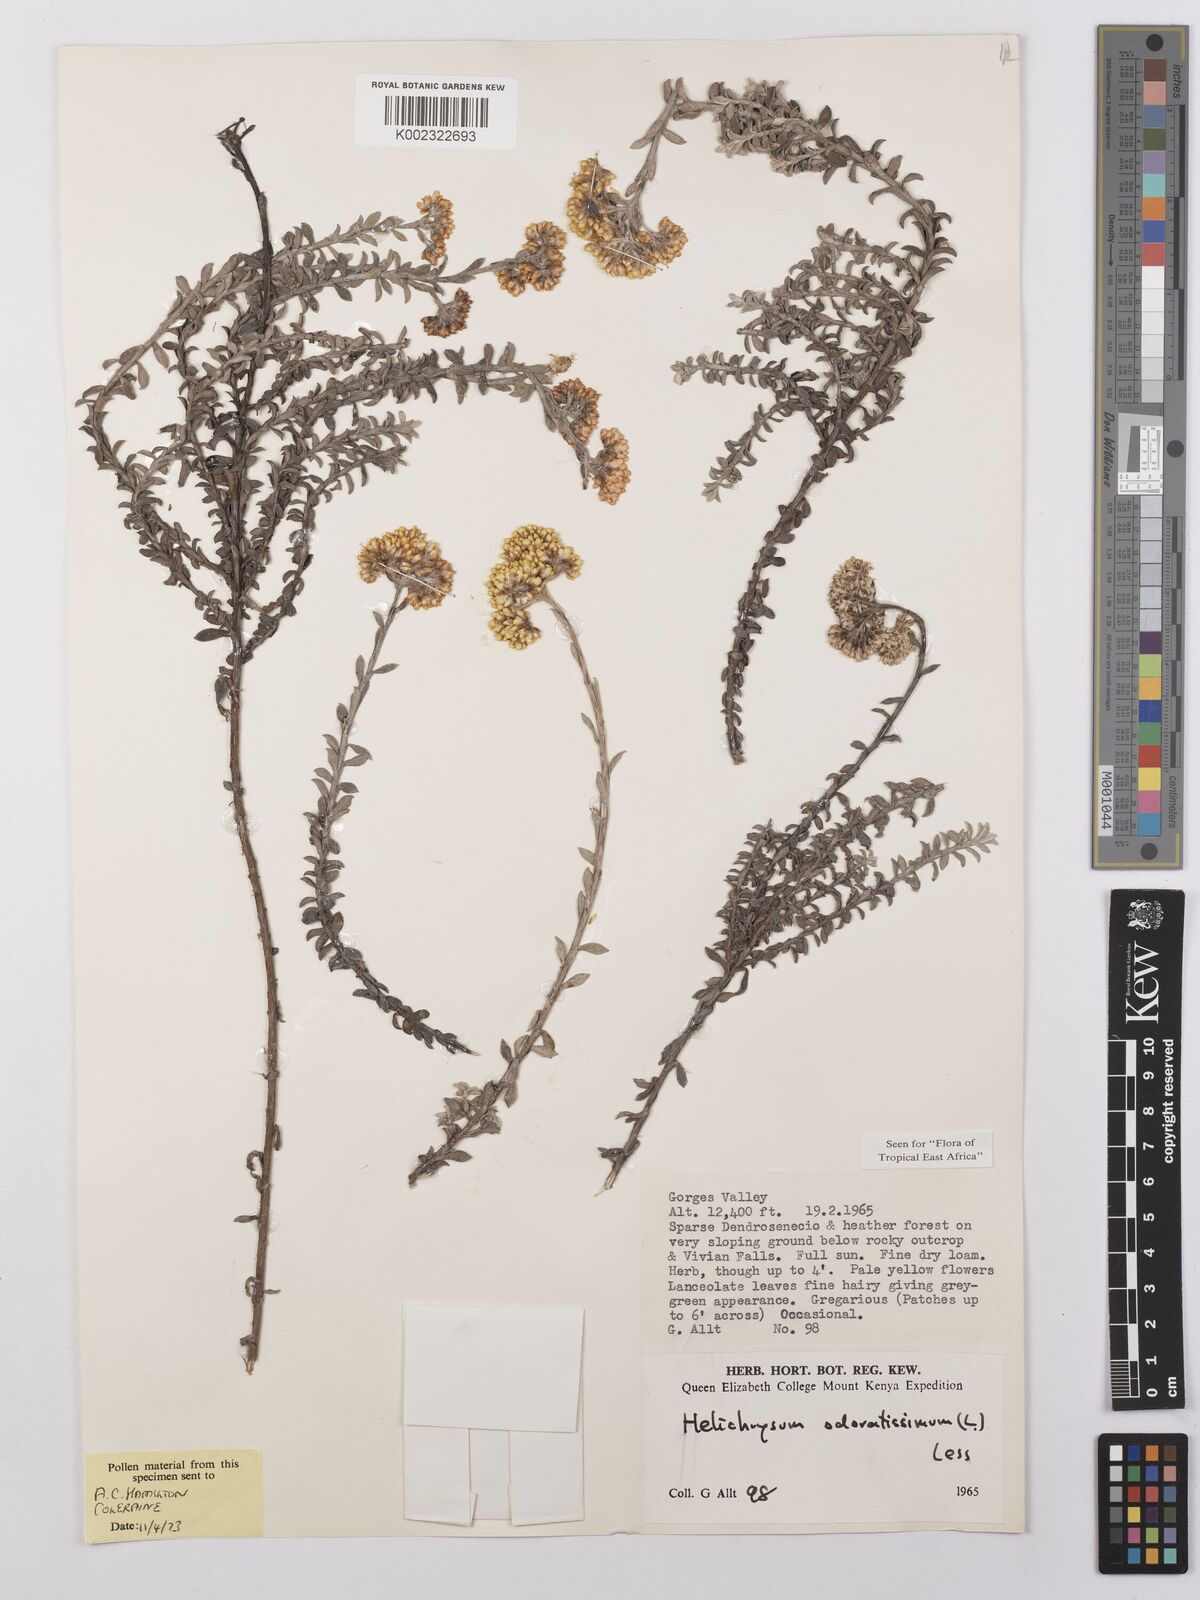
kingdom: Plantae
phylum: Tracheophyta
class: Magnoliopsida
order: Asterales
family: Asteraceae
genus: Helichrysum
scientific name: Helichrysum odoratissimum
